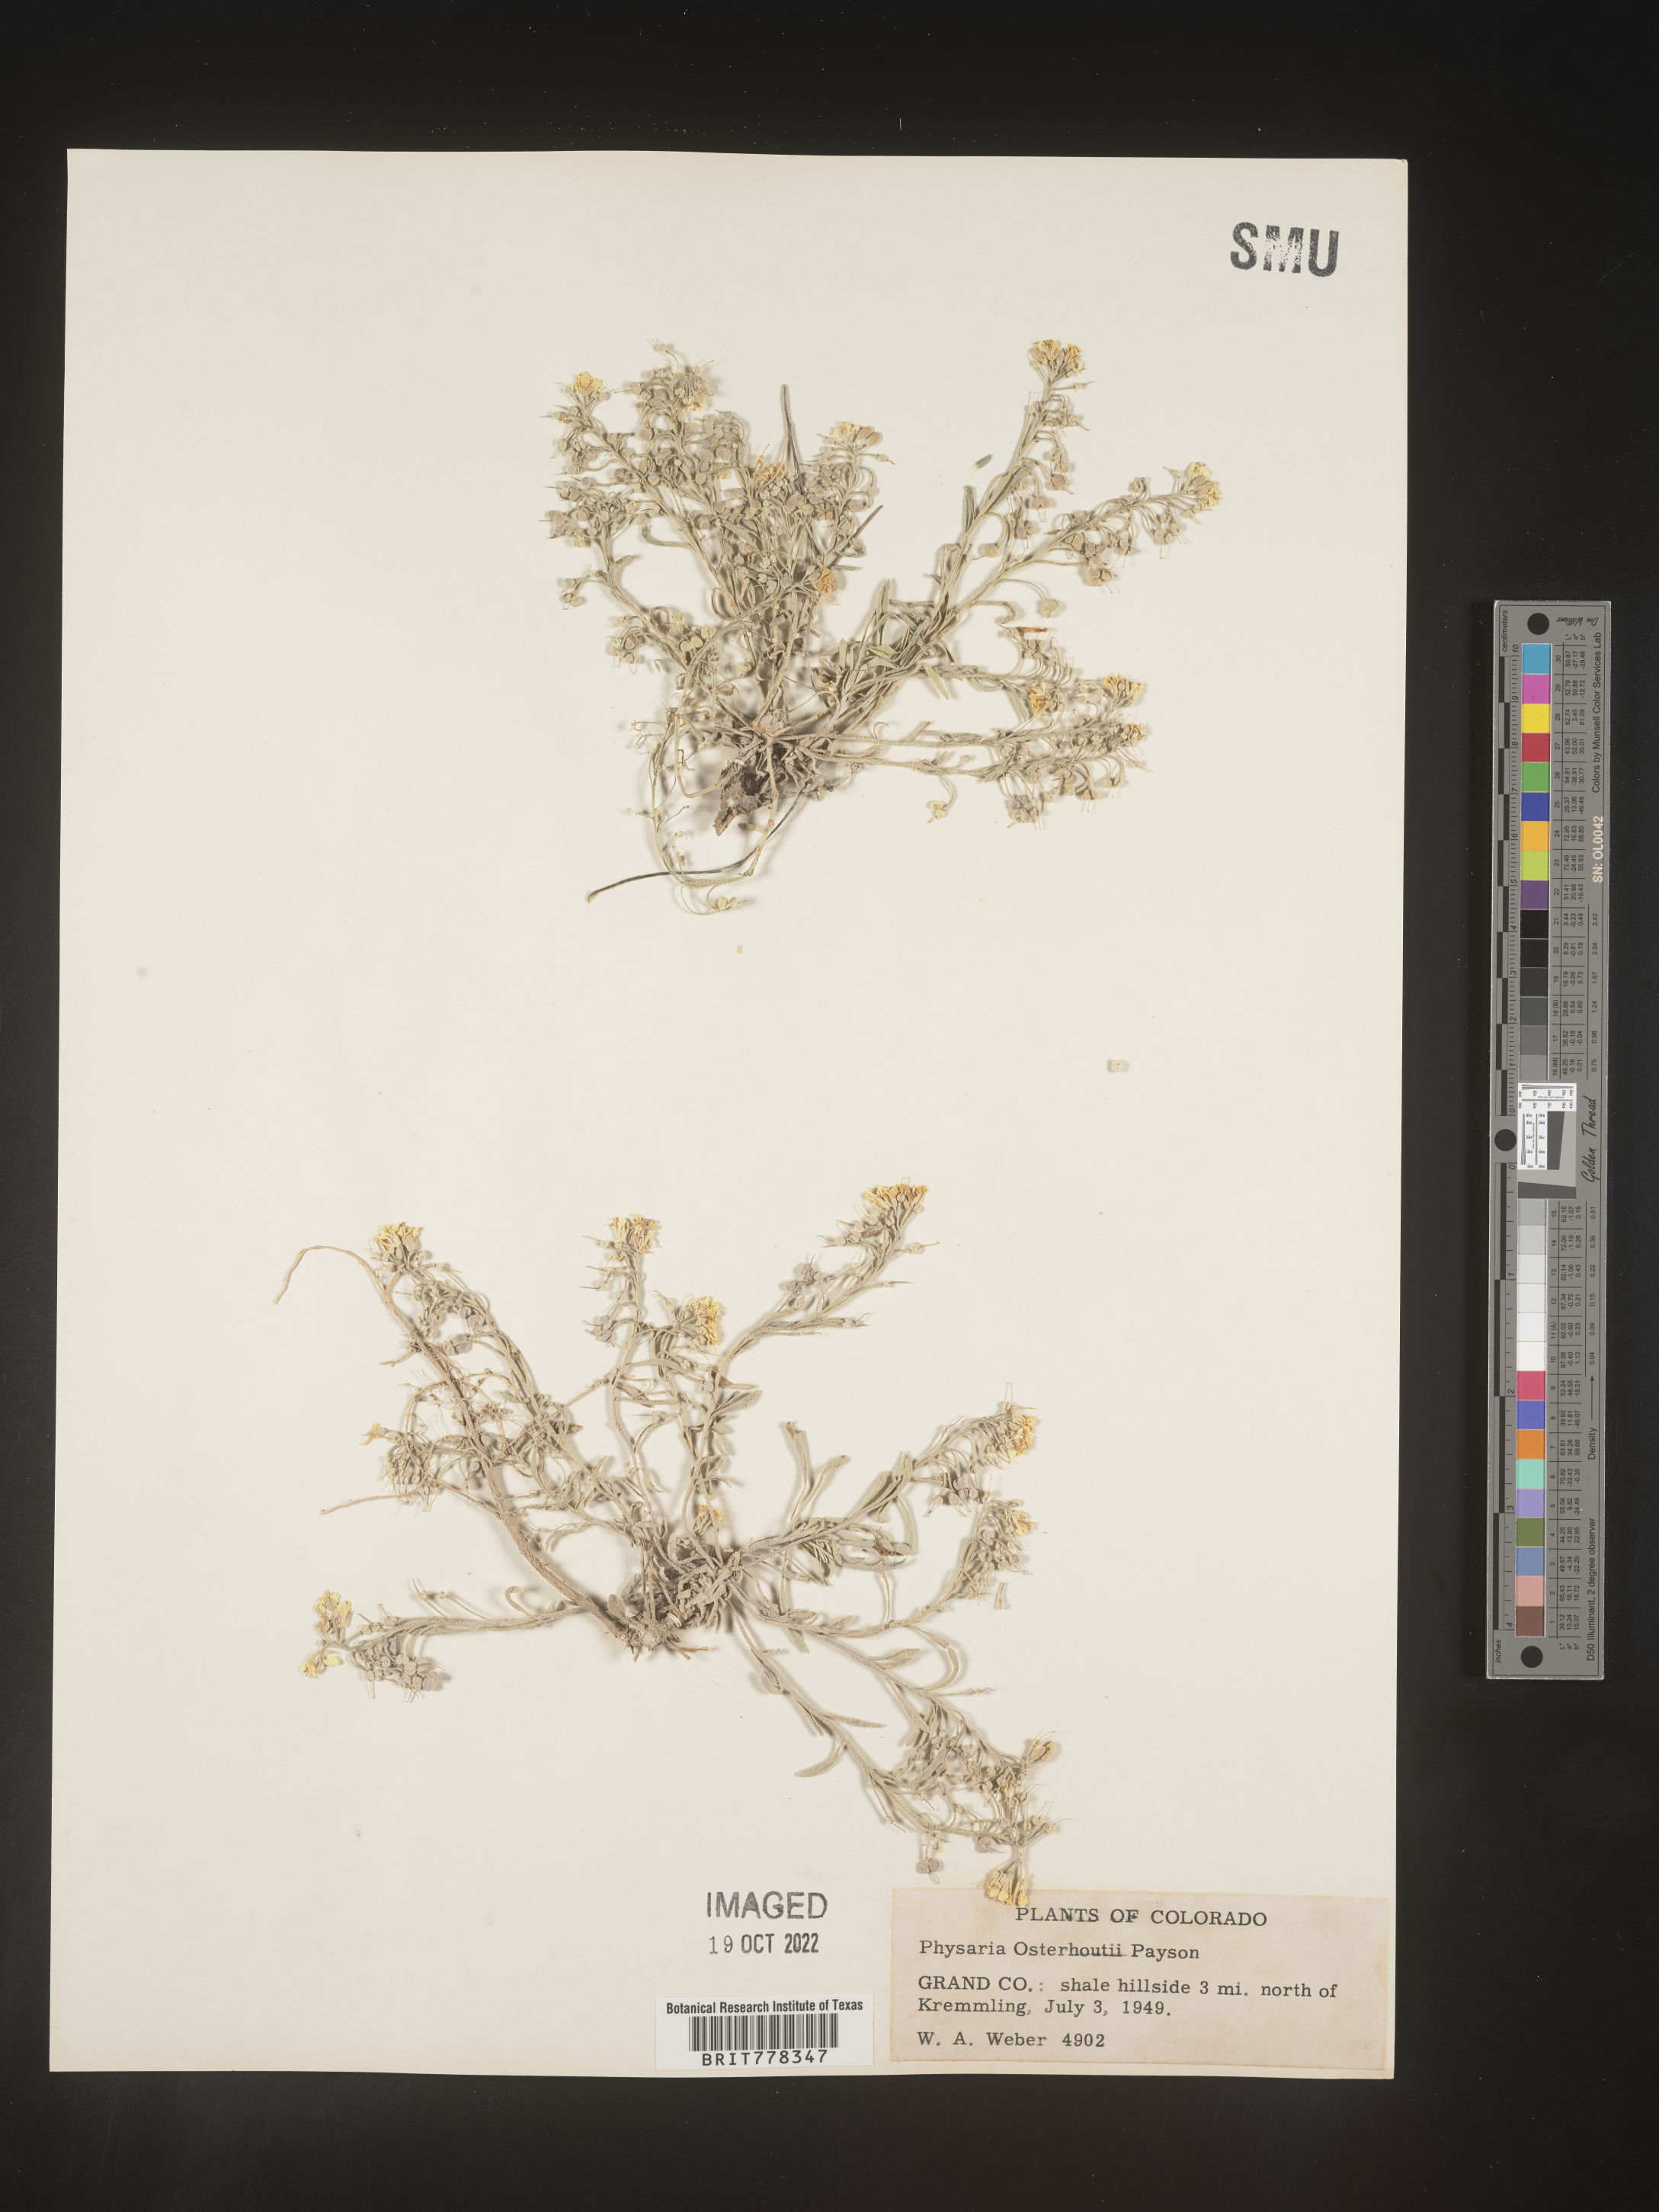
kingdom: Plantae
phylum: Tracheophyta
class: Magnoliopsida
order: Brassicales
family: Brassicaceae
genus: Physaria
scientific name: Physaria
